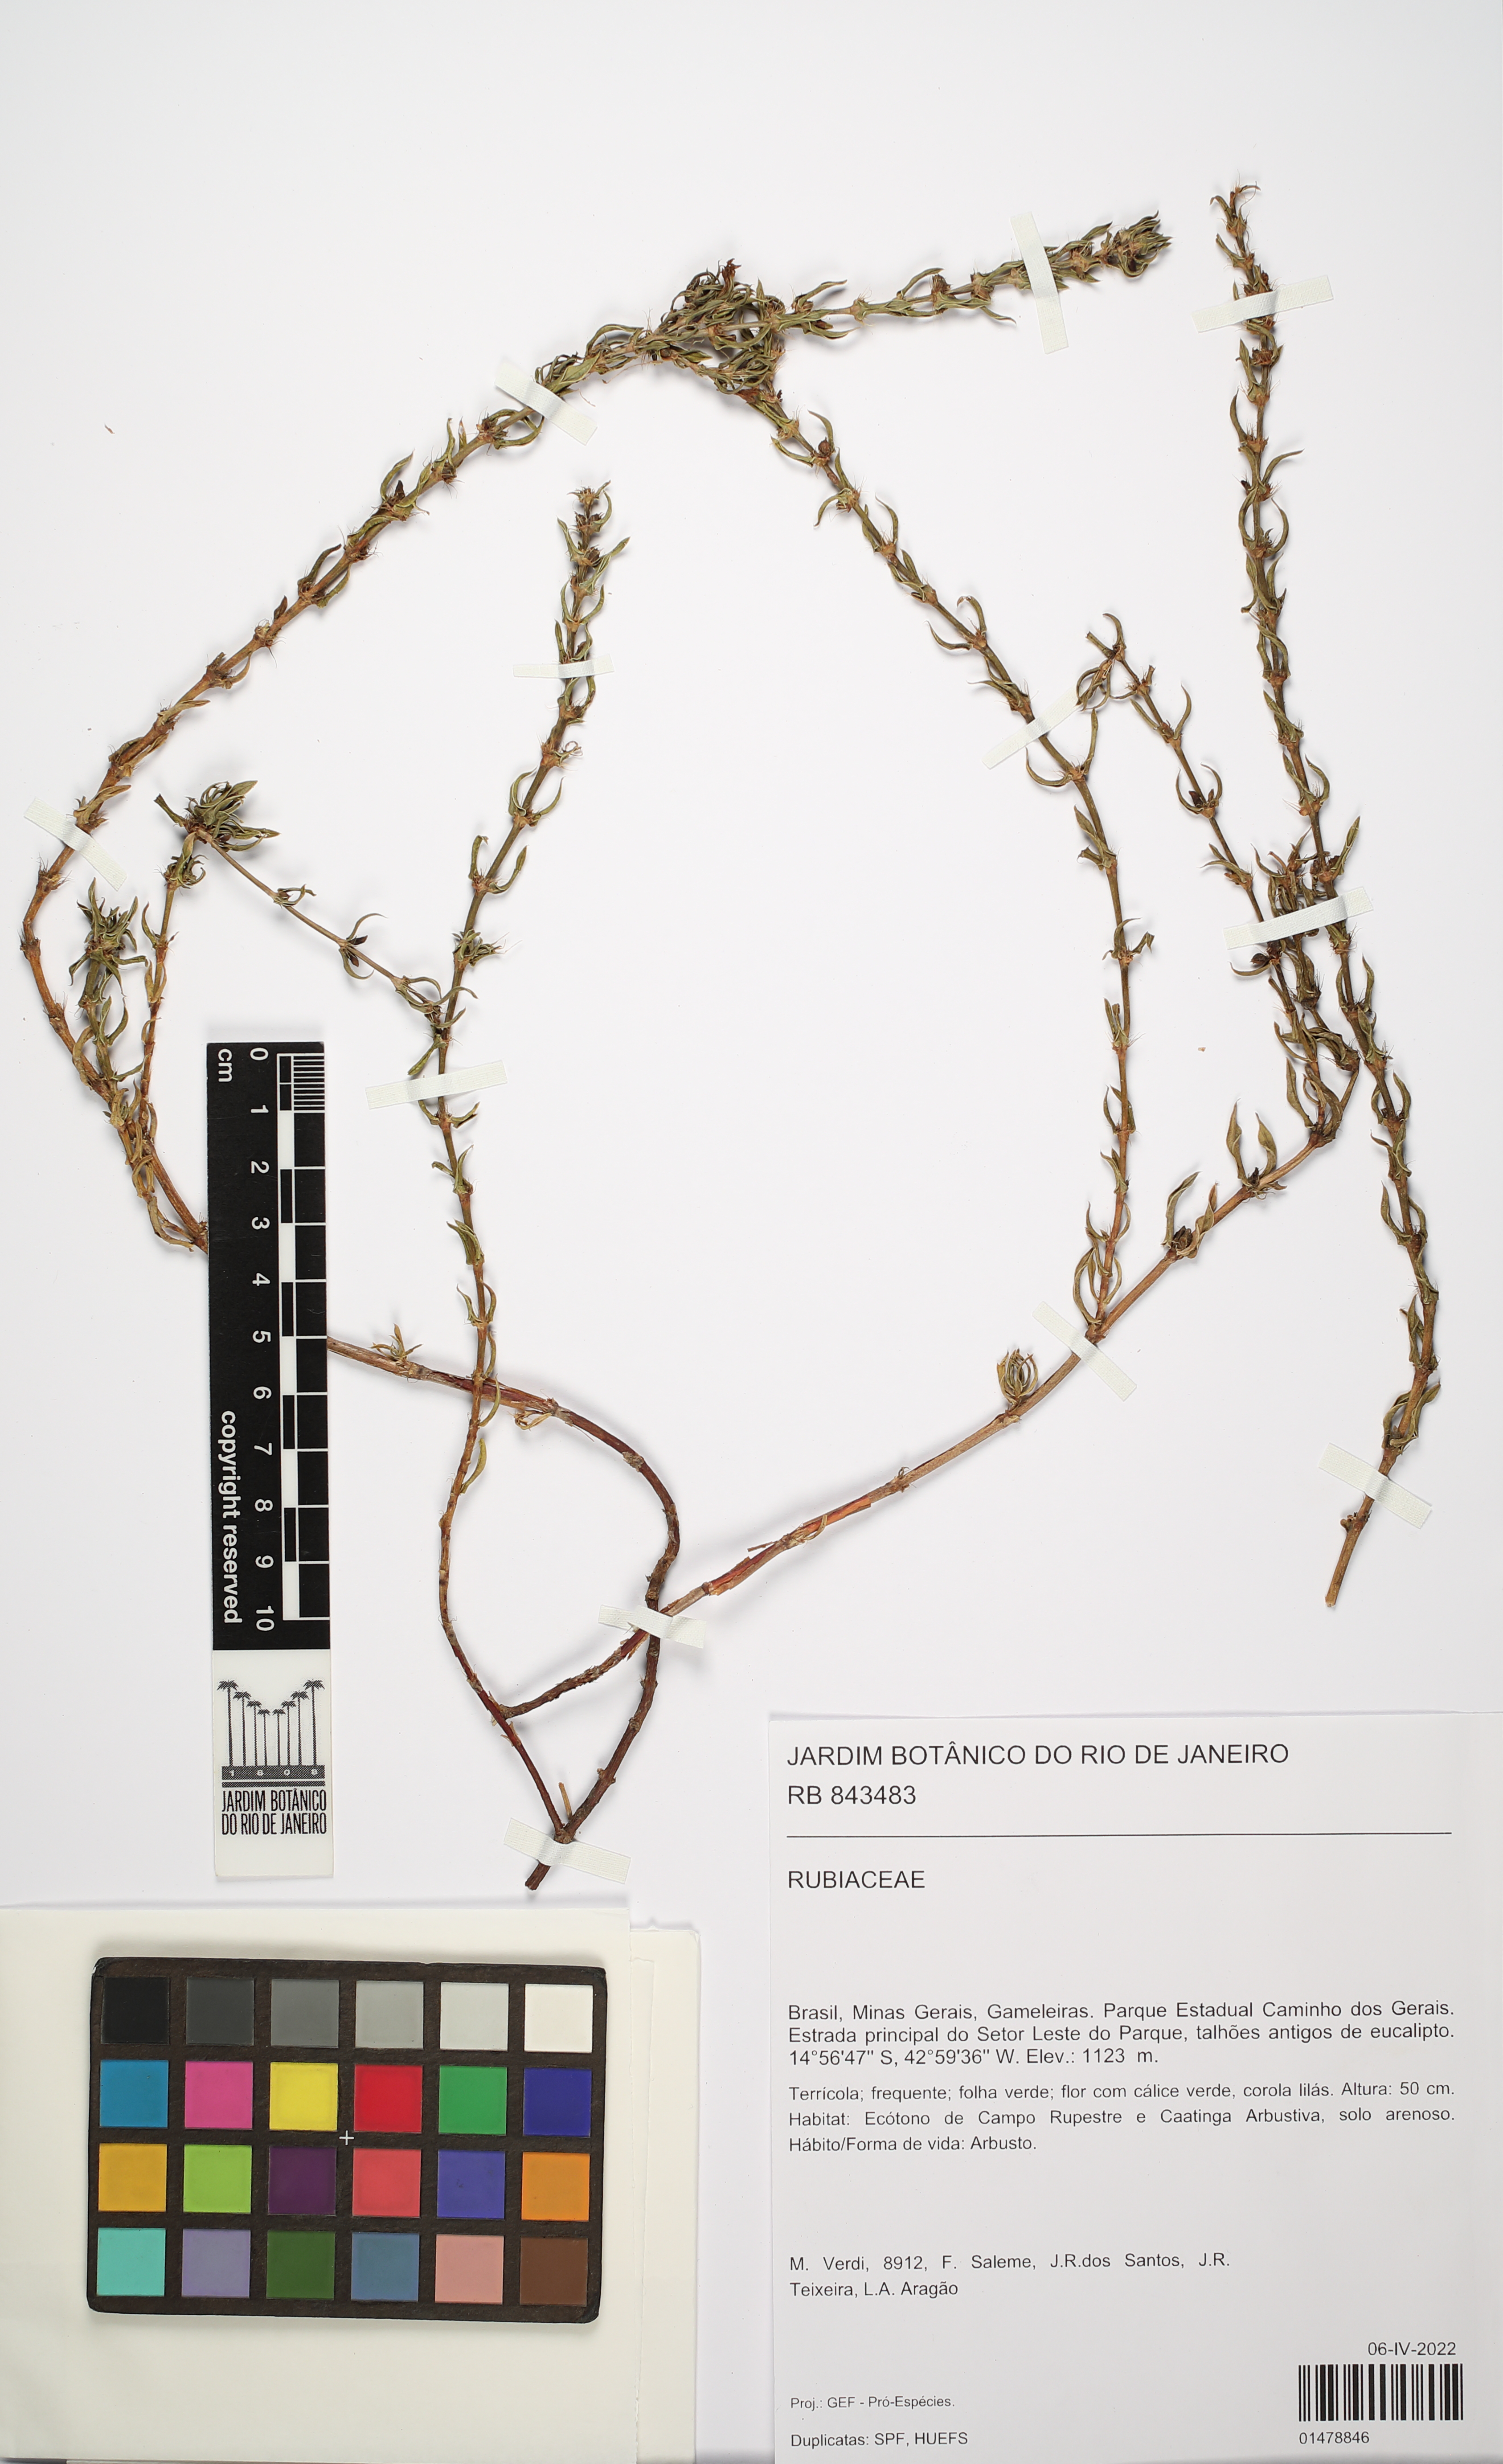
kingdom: Plantae
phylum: Tracheophyta
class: Magnoliopsida
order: Gentianales
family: Rubiaceae
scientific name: Rubiaceae
